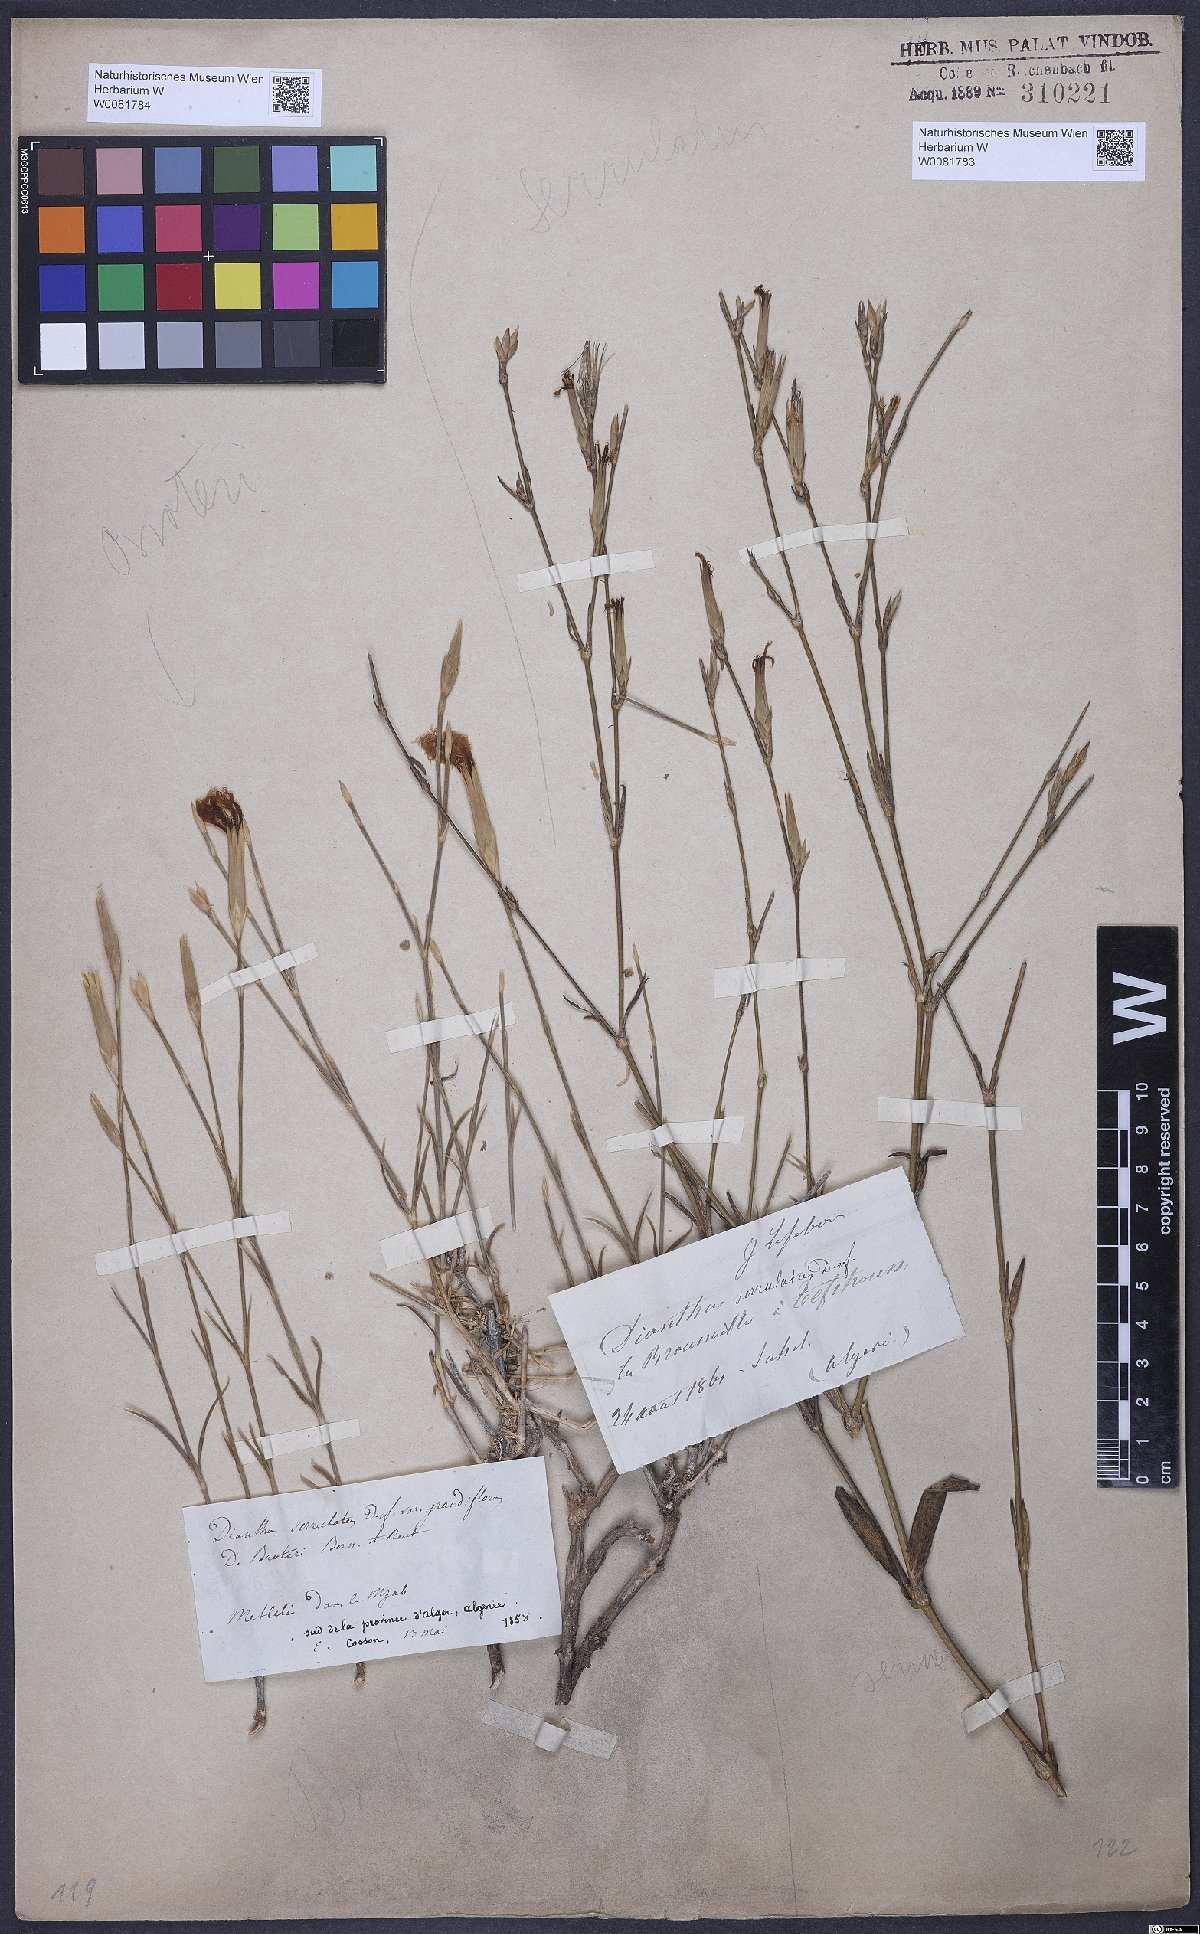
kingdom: Plantae
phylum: Tracheophyta
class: Magnoliopsida
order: Caryophyllales
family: Caryophyllaceae
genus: Dianthus
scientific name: Dianthus broteri
